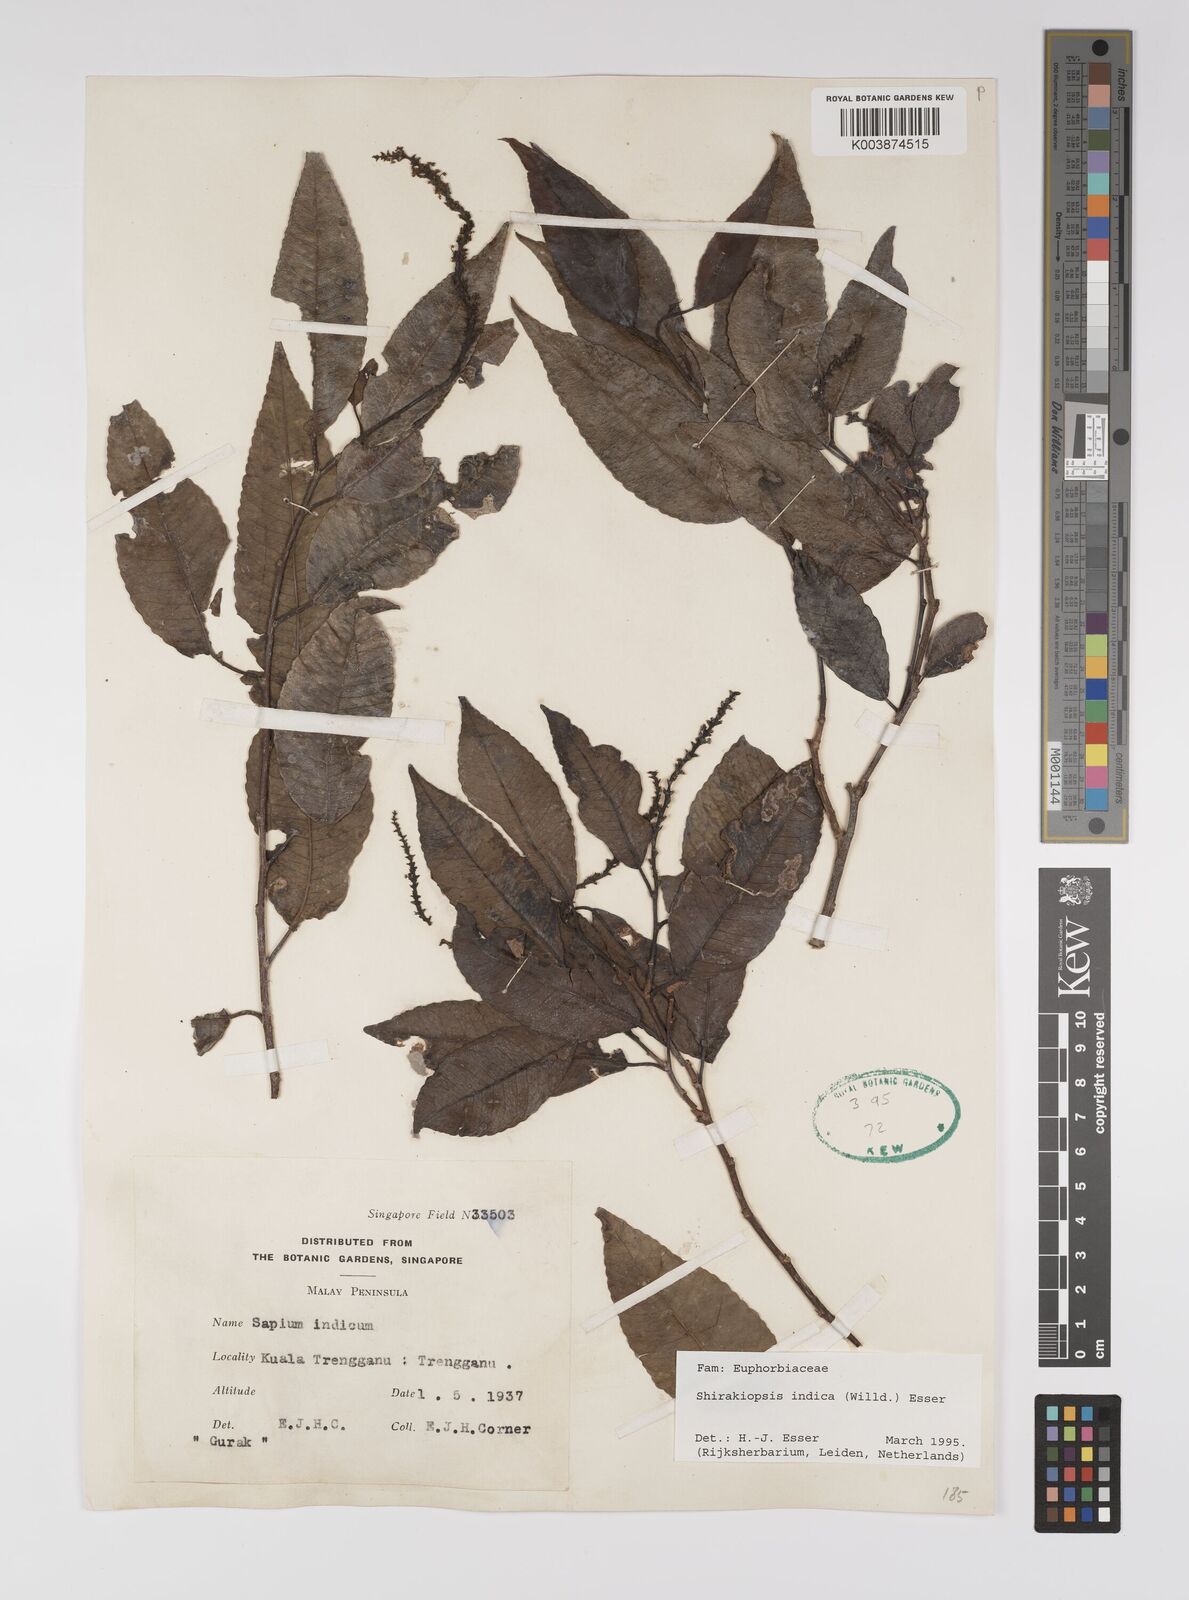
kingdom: Plantae
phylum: Tracheophyta
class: Magnoliopsida
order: Malpighiales
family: Euphorbiaceae
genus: Shirakiopsis
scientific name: Shirakiopsis indica
